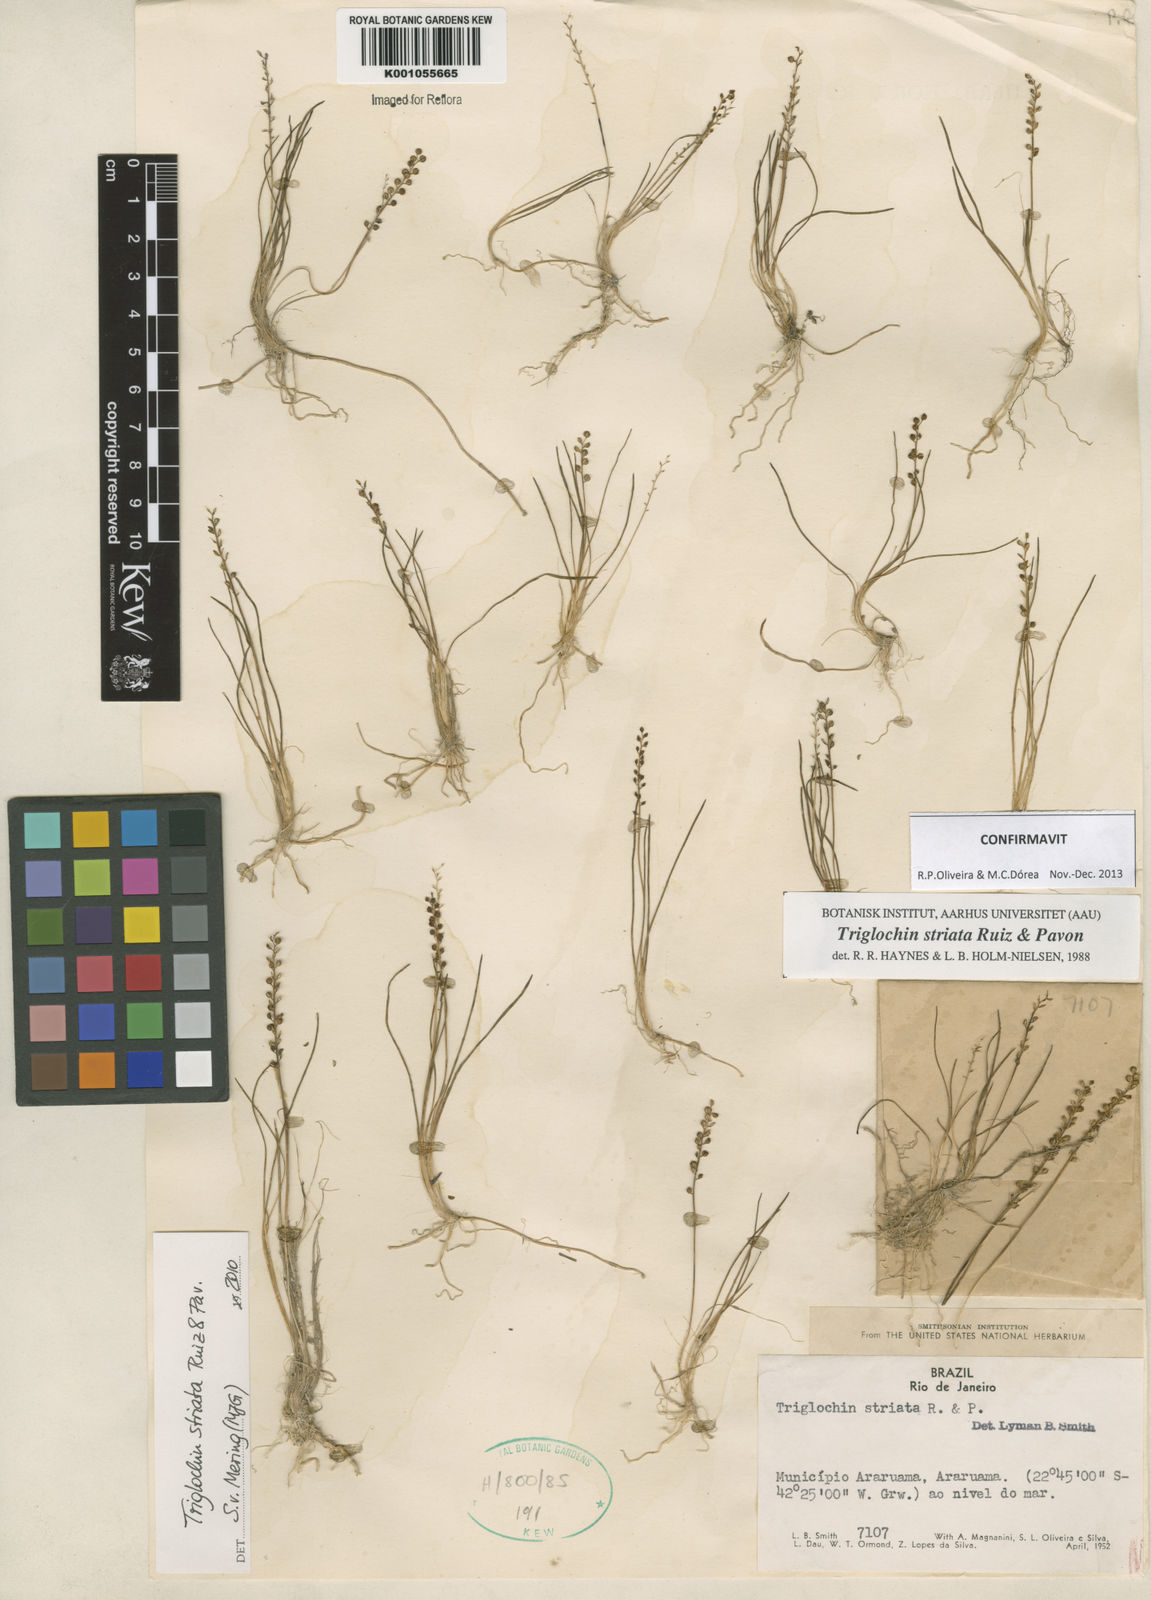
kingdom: Plantae
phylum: Tracheophyta
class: Liliopsida
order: Alismatales
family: Juncaginaceae
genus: Triglochin
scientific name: Triglochin striata
